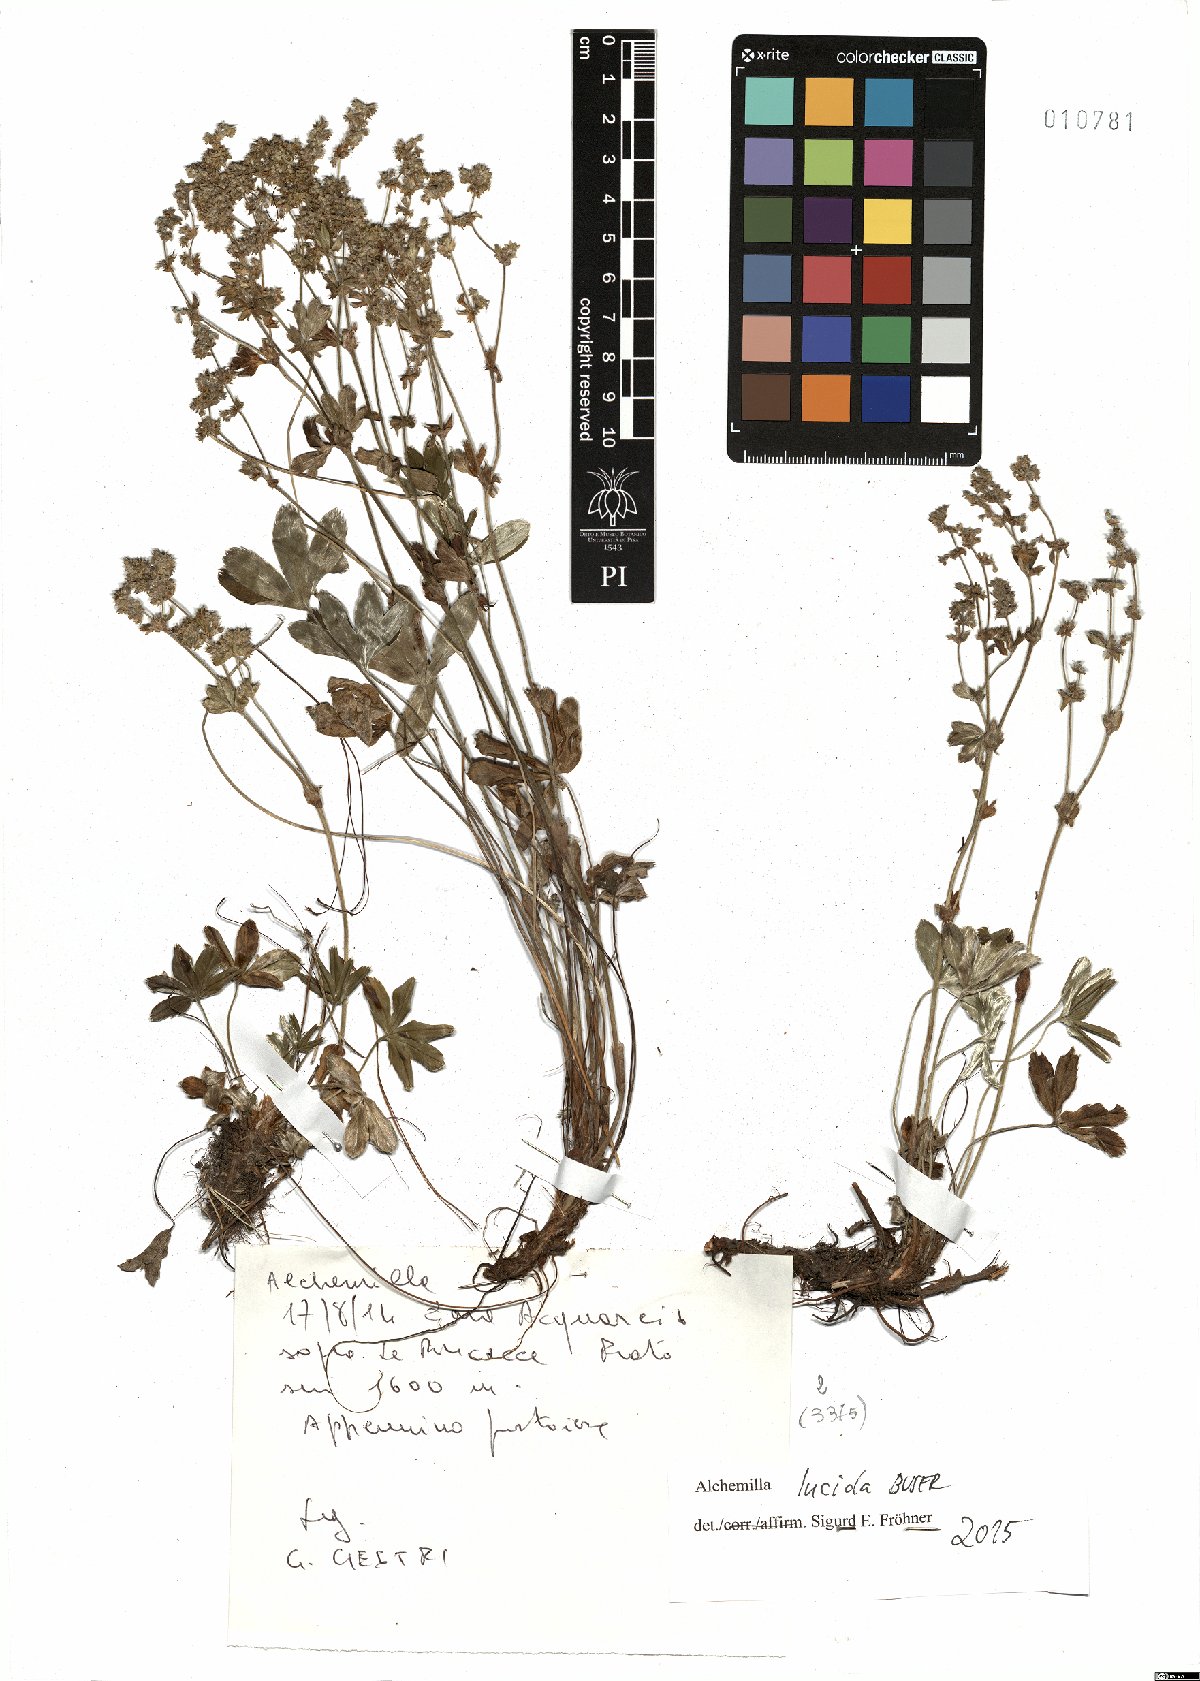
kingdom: Plantae
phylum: Tracheophyta
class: Magnoliopsida
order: Rosales
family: Rosaceae
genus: Alchemilla
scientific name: Alchemilla lucida
